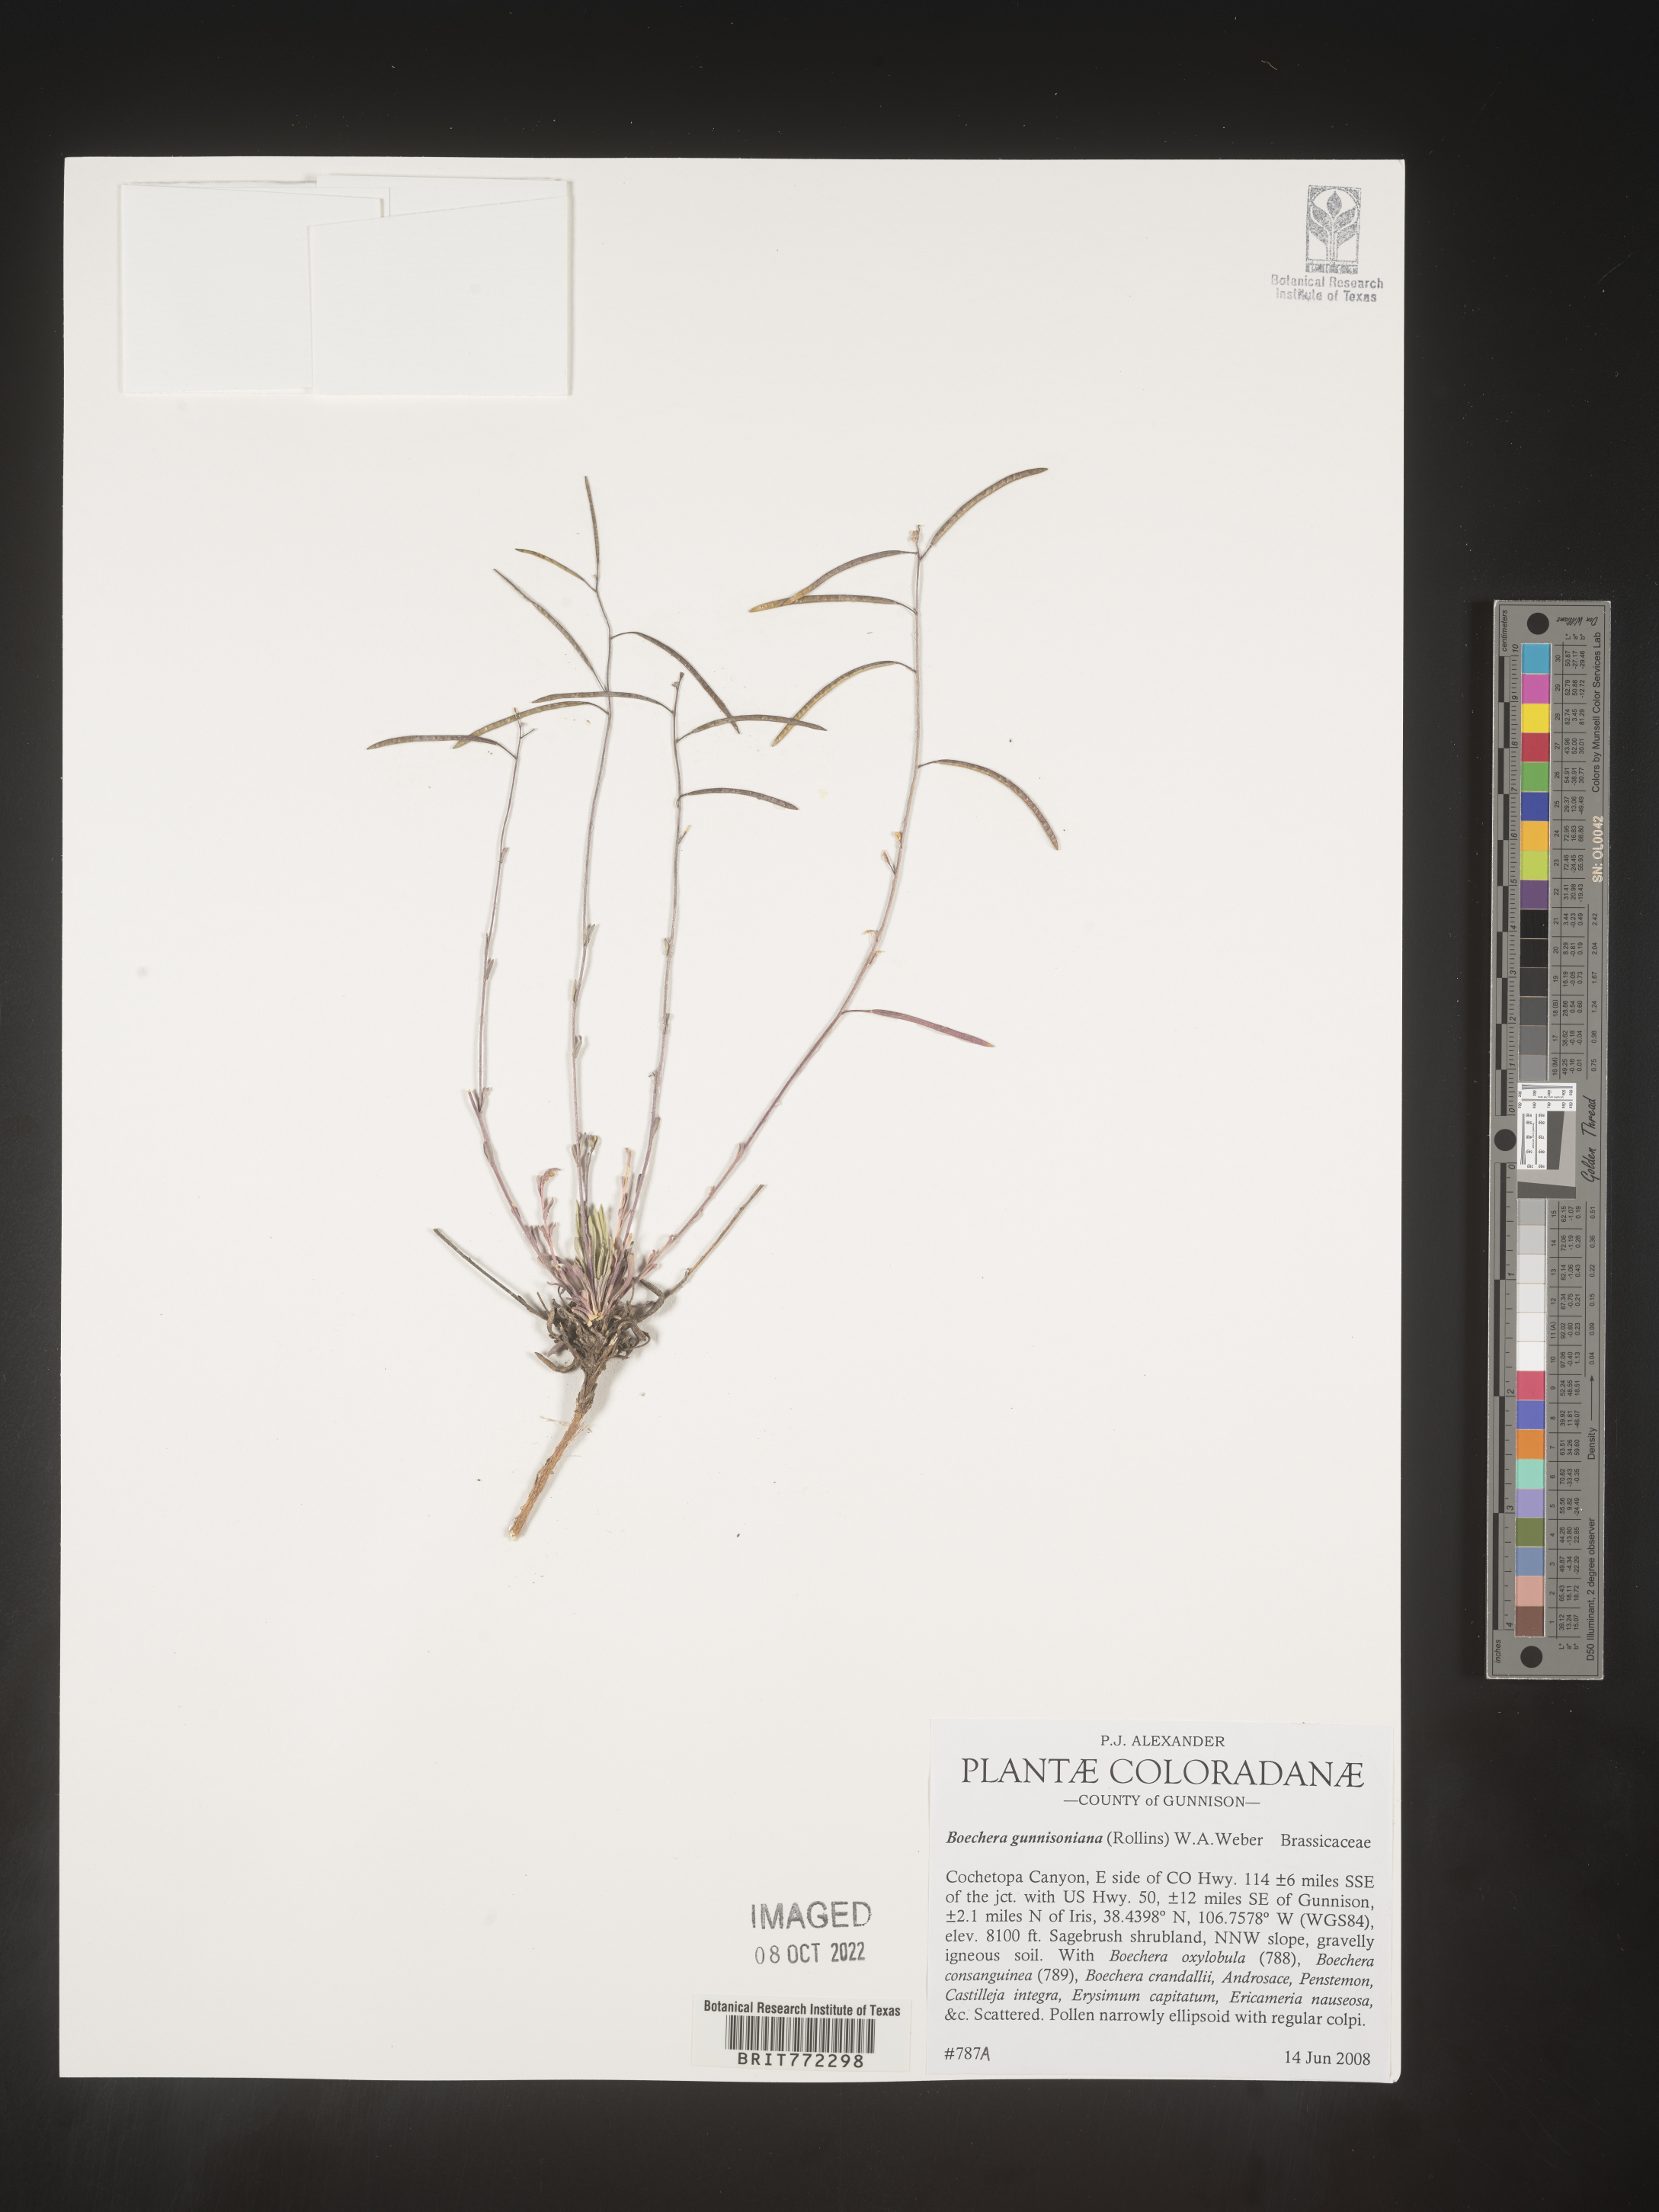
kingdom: Plantae
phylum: Tracheophyta
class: Magnoliopsida
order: Brassicales
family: Brassicaceae
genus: Boechera
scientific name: Boechera
